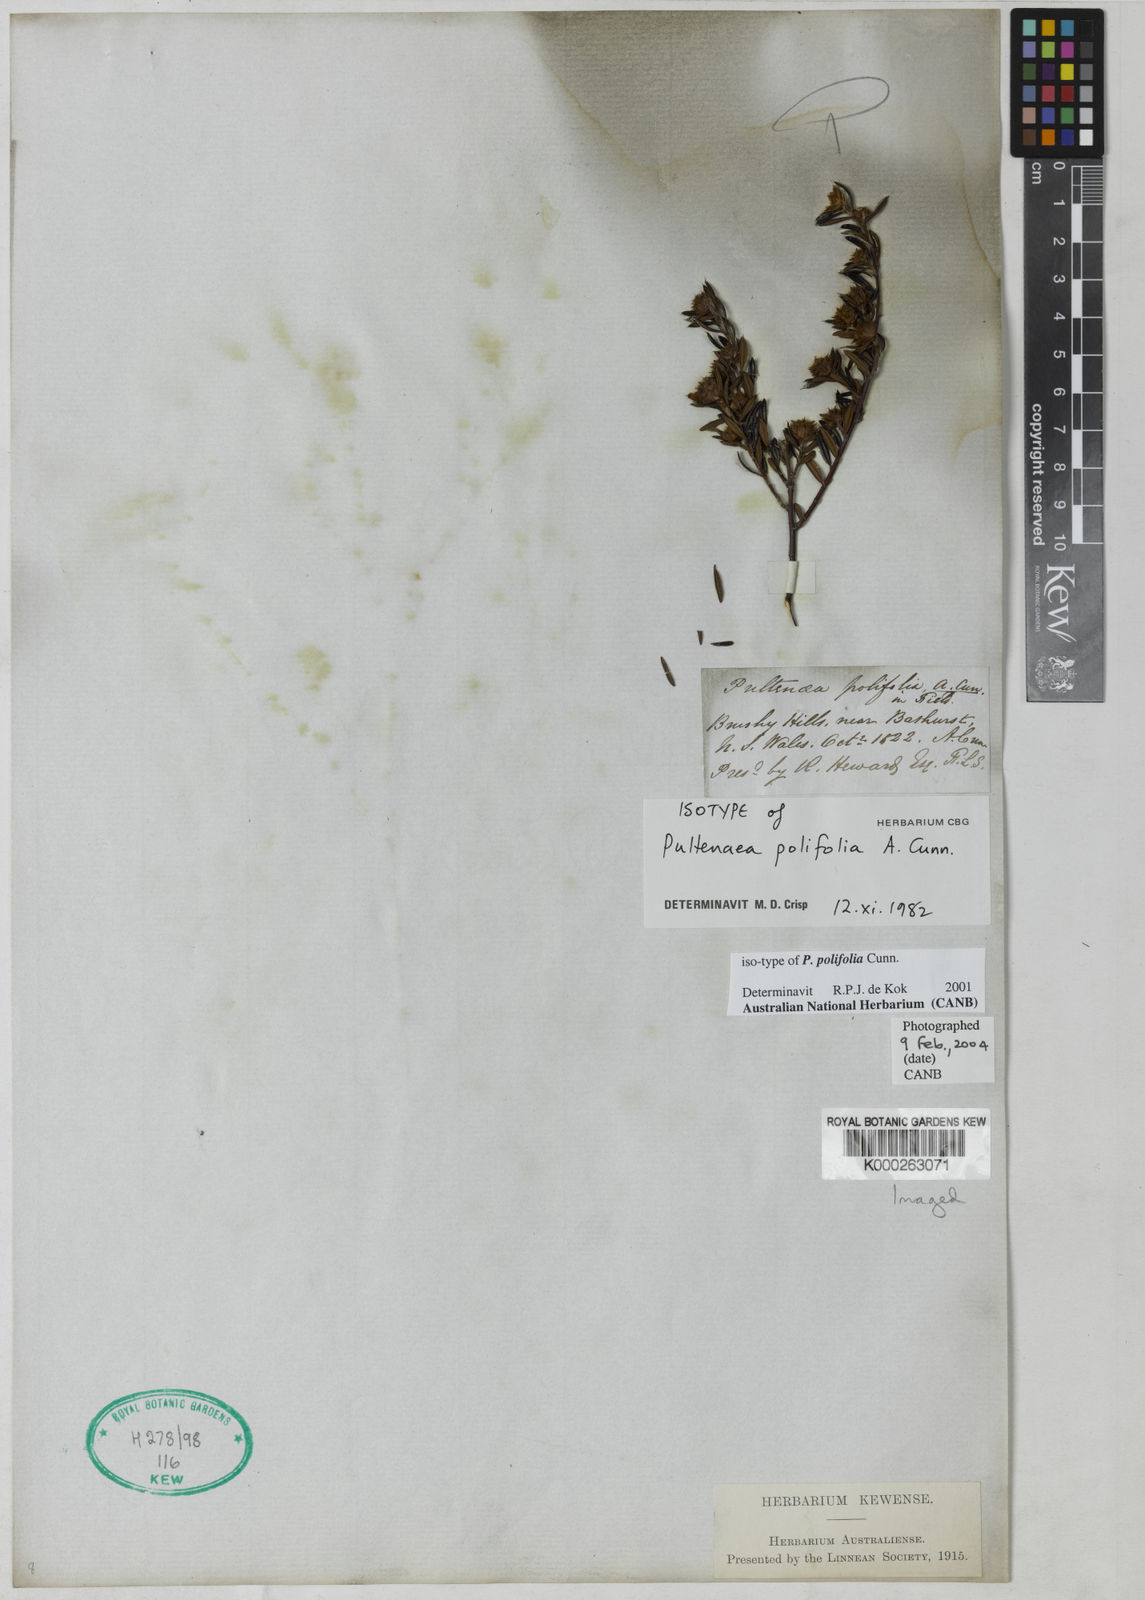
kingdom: Plantae
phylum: Tracheophyta
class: Magnoliopsida
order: Fabales
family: Fabaceae
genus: Pultenaea
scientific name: Pultenaea polifolia
